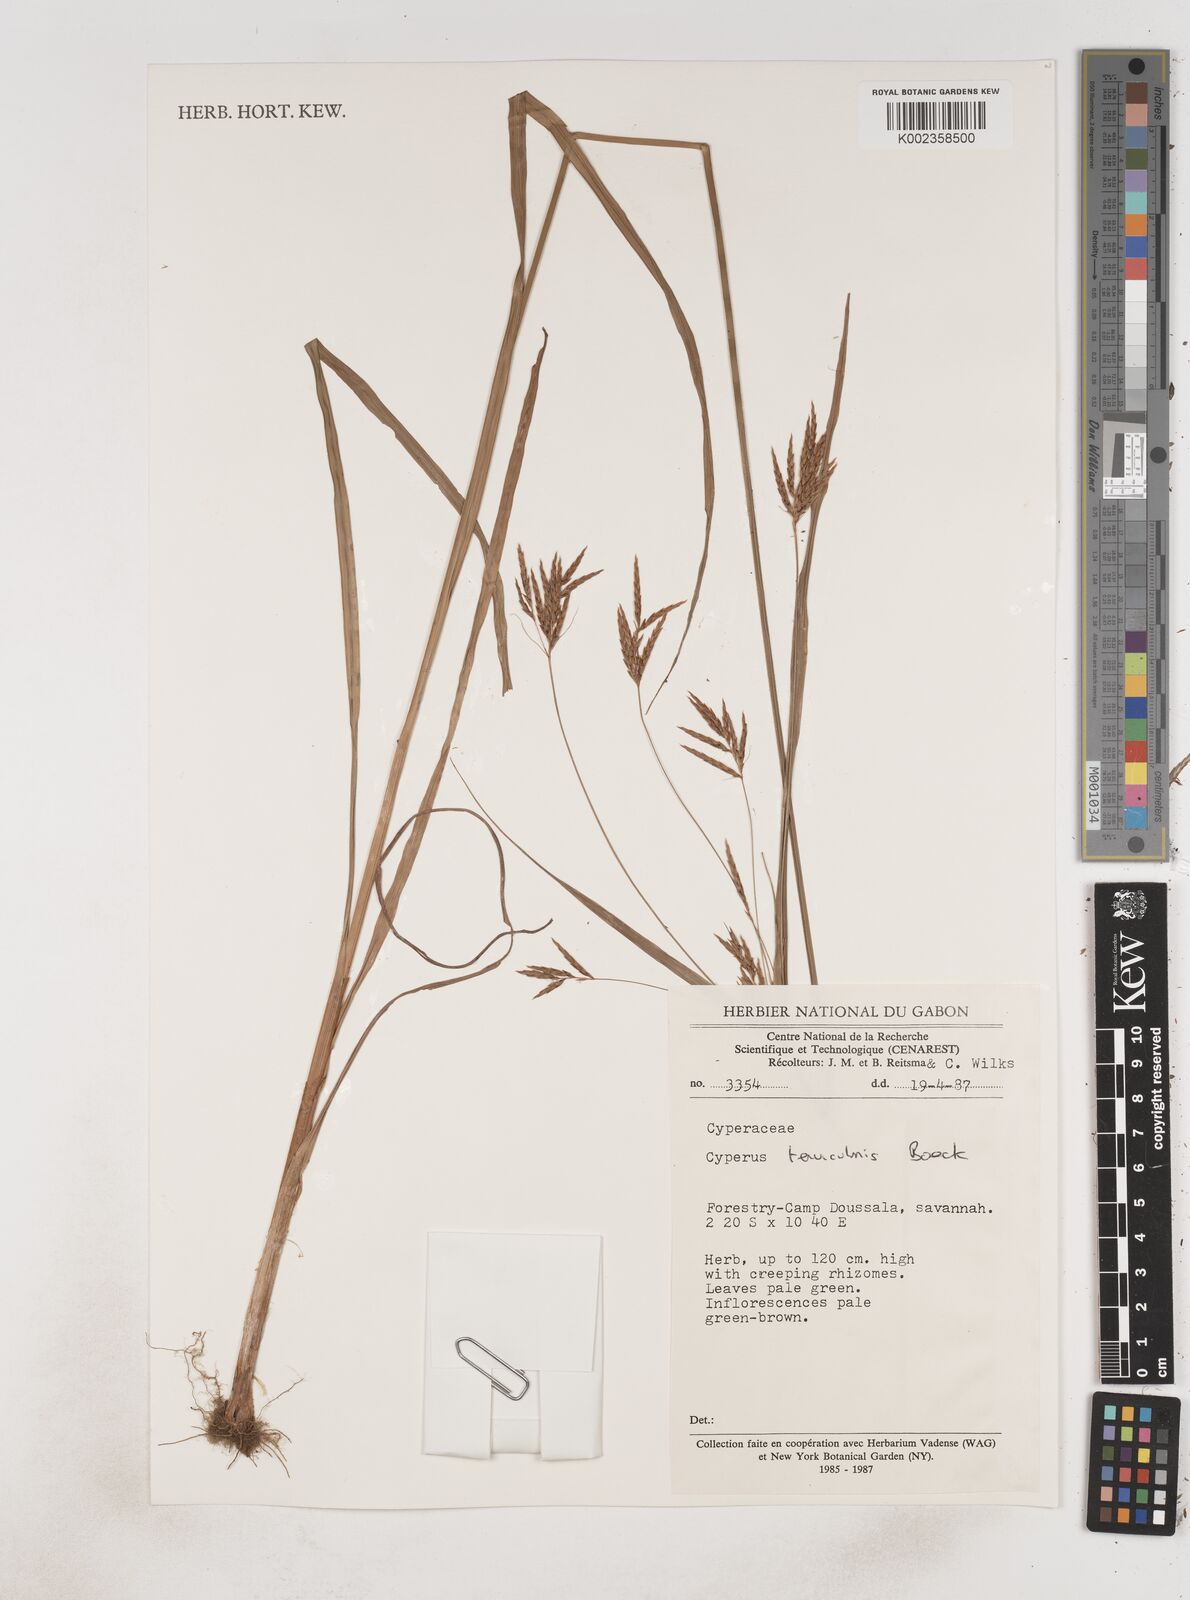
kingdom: Plantae
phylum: Tracheophyta
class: Liliopsida
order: Poales
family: Cyperaceae
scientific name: Cyperaceae
